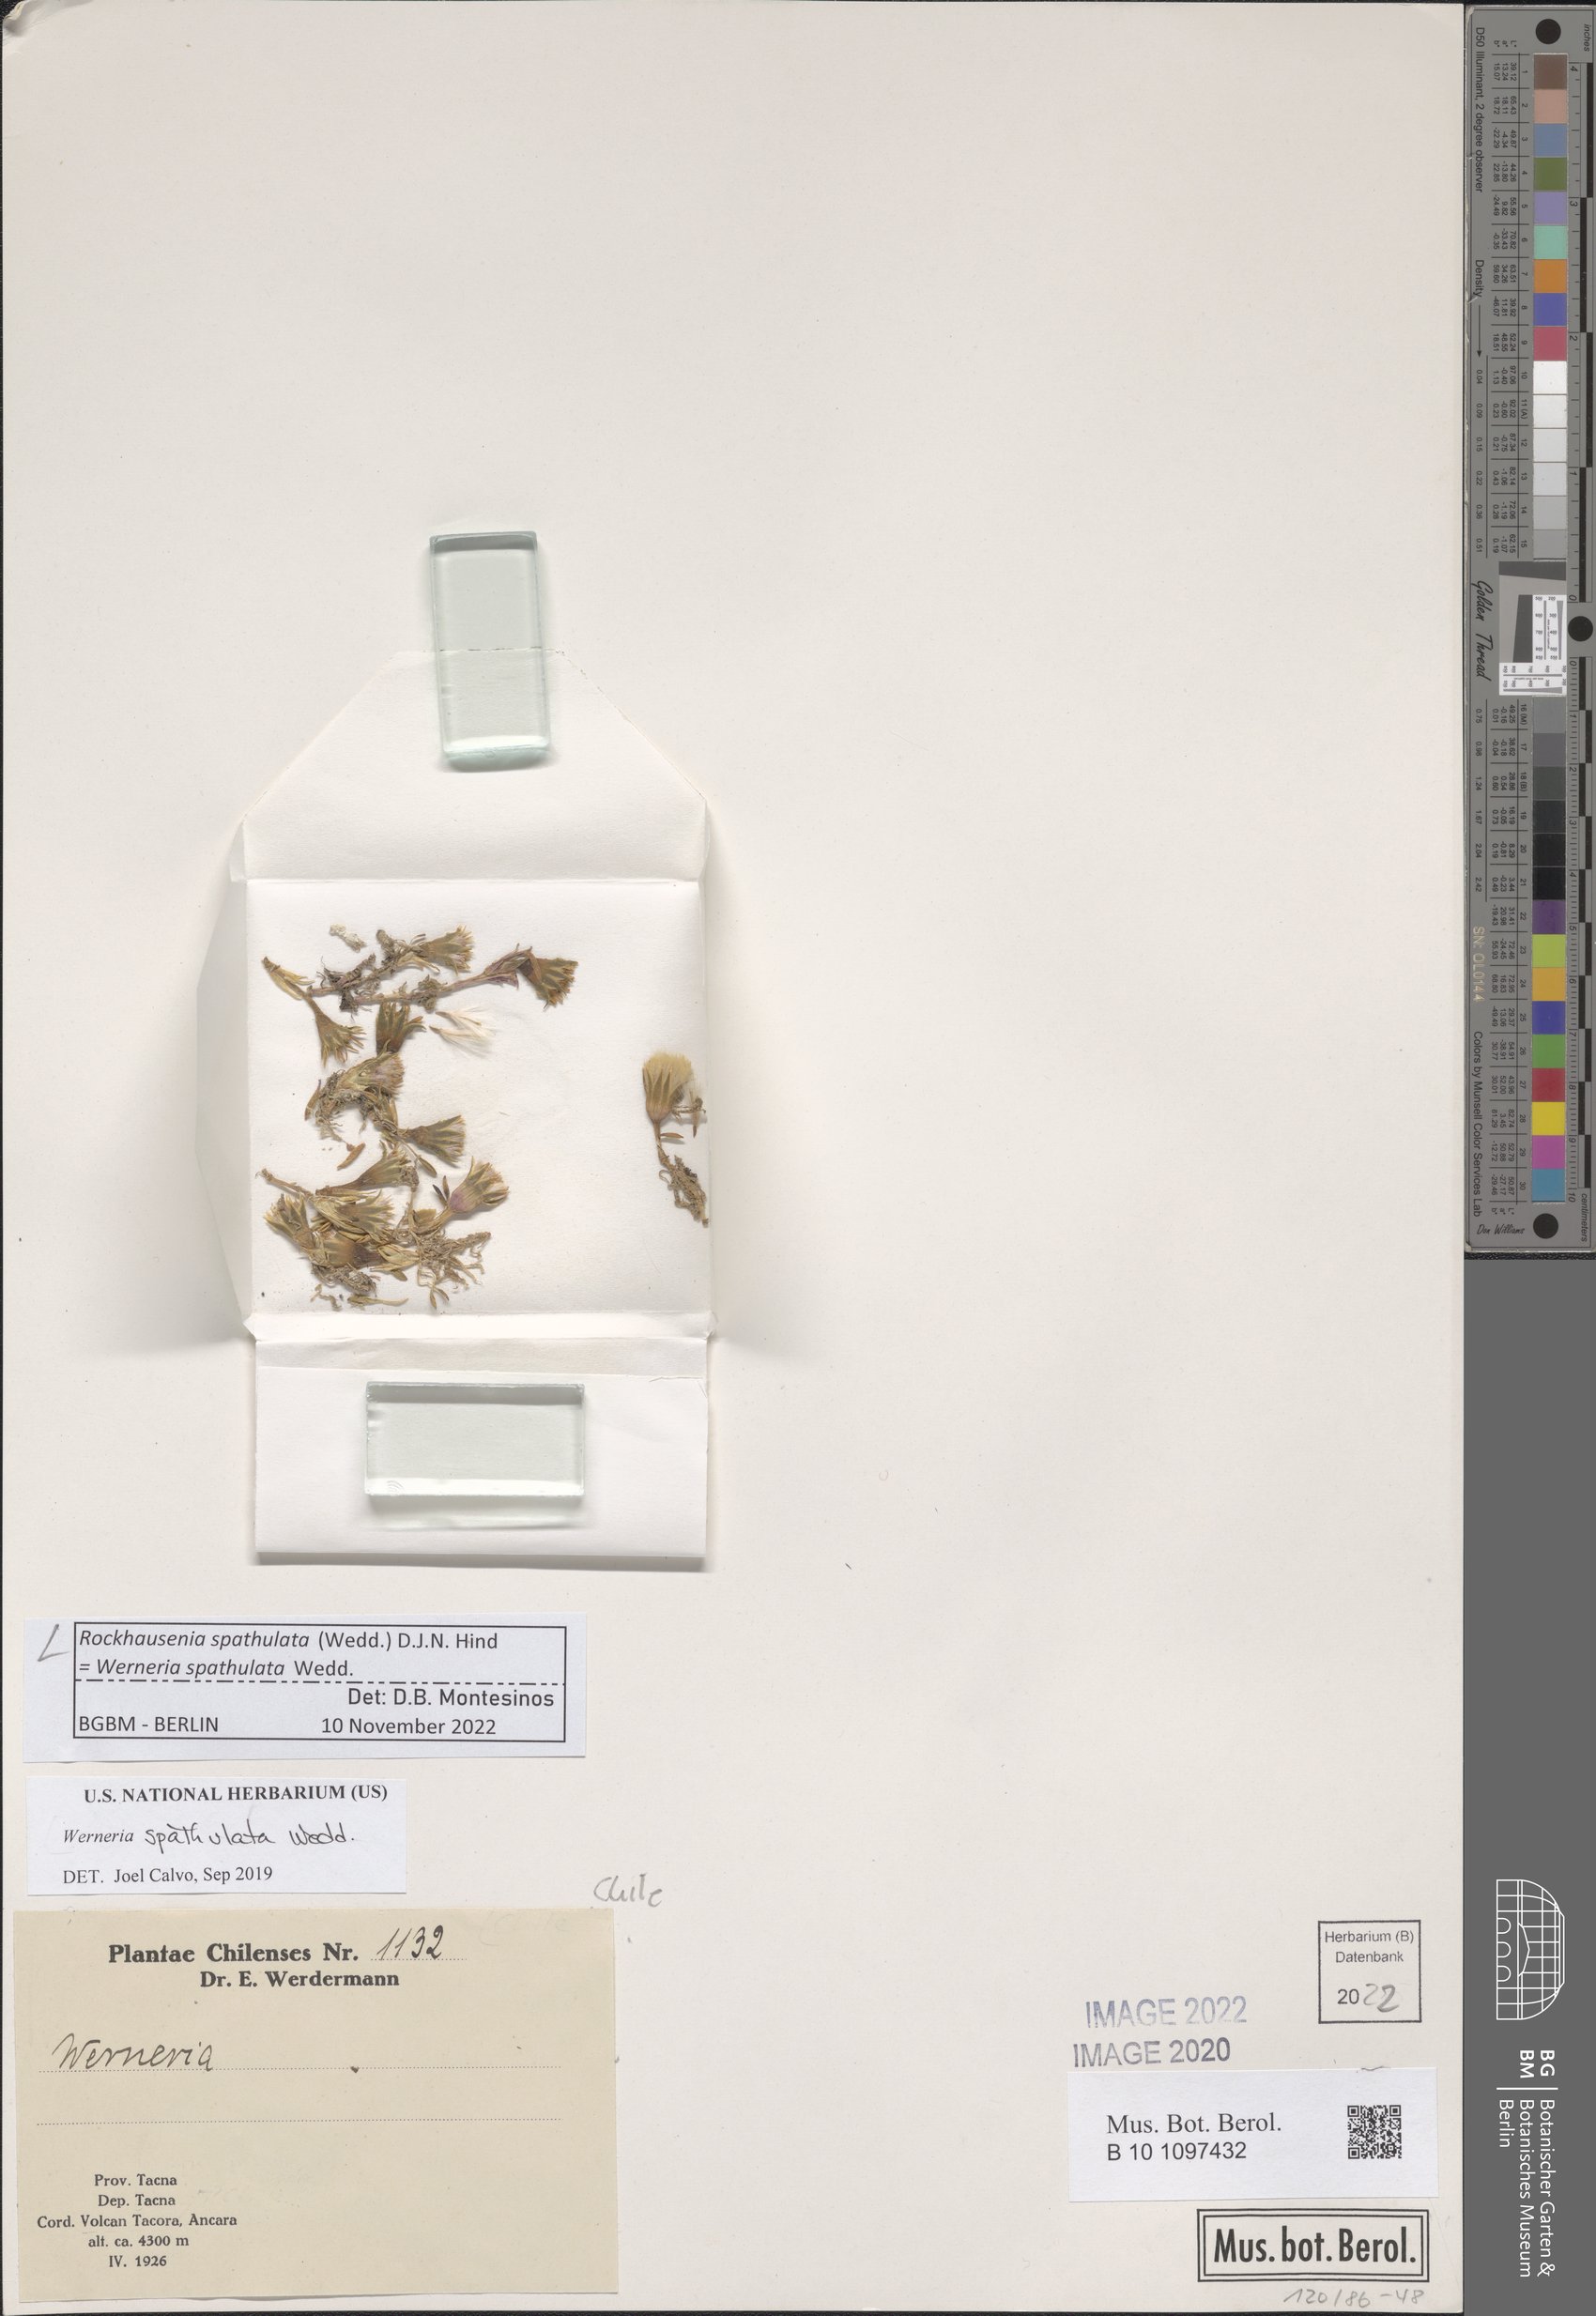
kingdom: Plantae
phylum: Tracheophyta
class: Magnoliopsida
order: Asterales
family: Asteraceae
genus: Rockhausenia
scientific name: Rockhausenia spathulata
